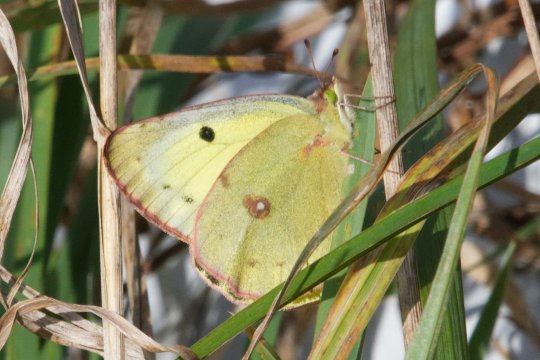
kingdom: Animalia
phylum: Arthropoda
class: Insecta
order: Lepidoptera
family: Pieridae
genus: Colias
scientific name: Colias philodice
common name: Clouded Sulphur
